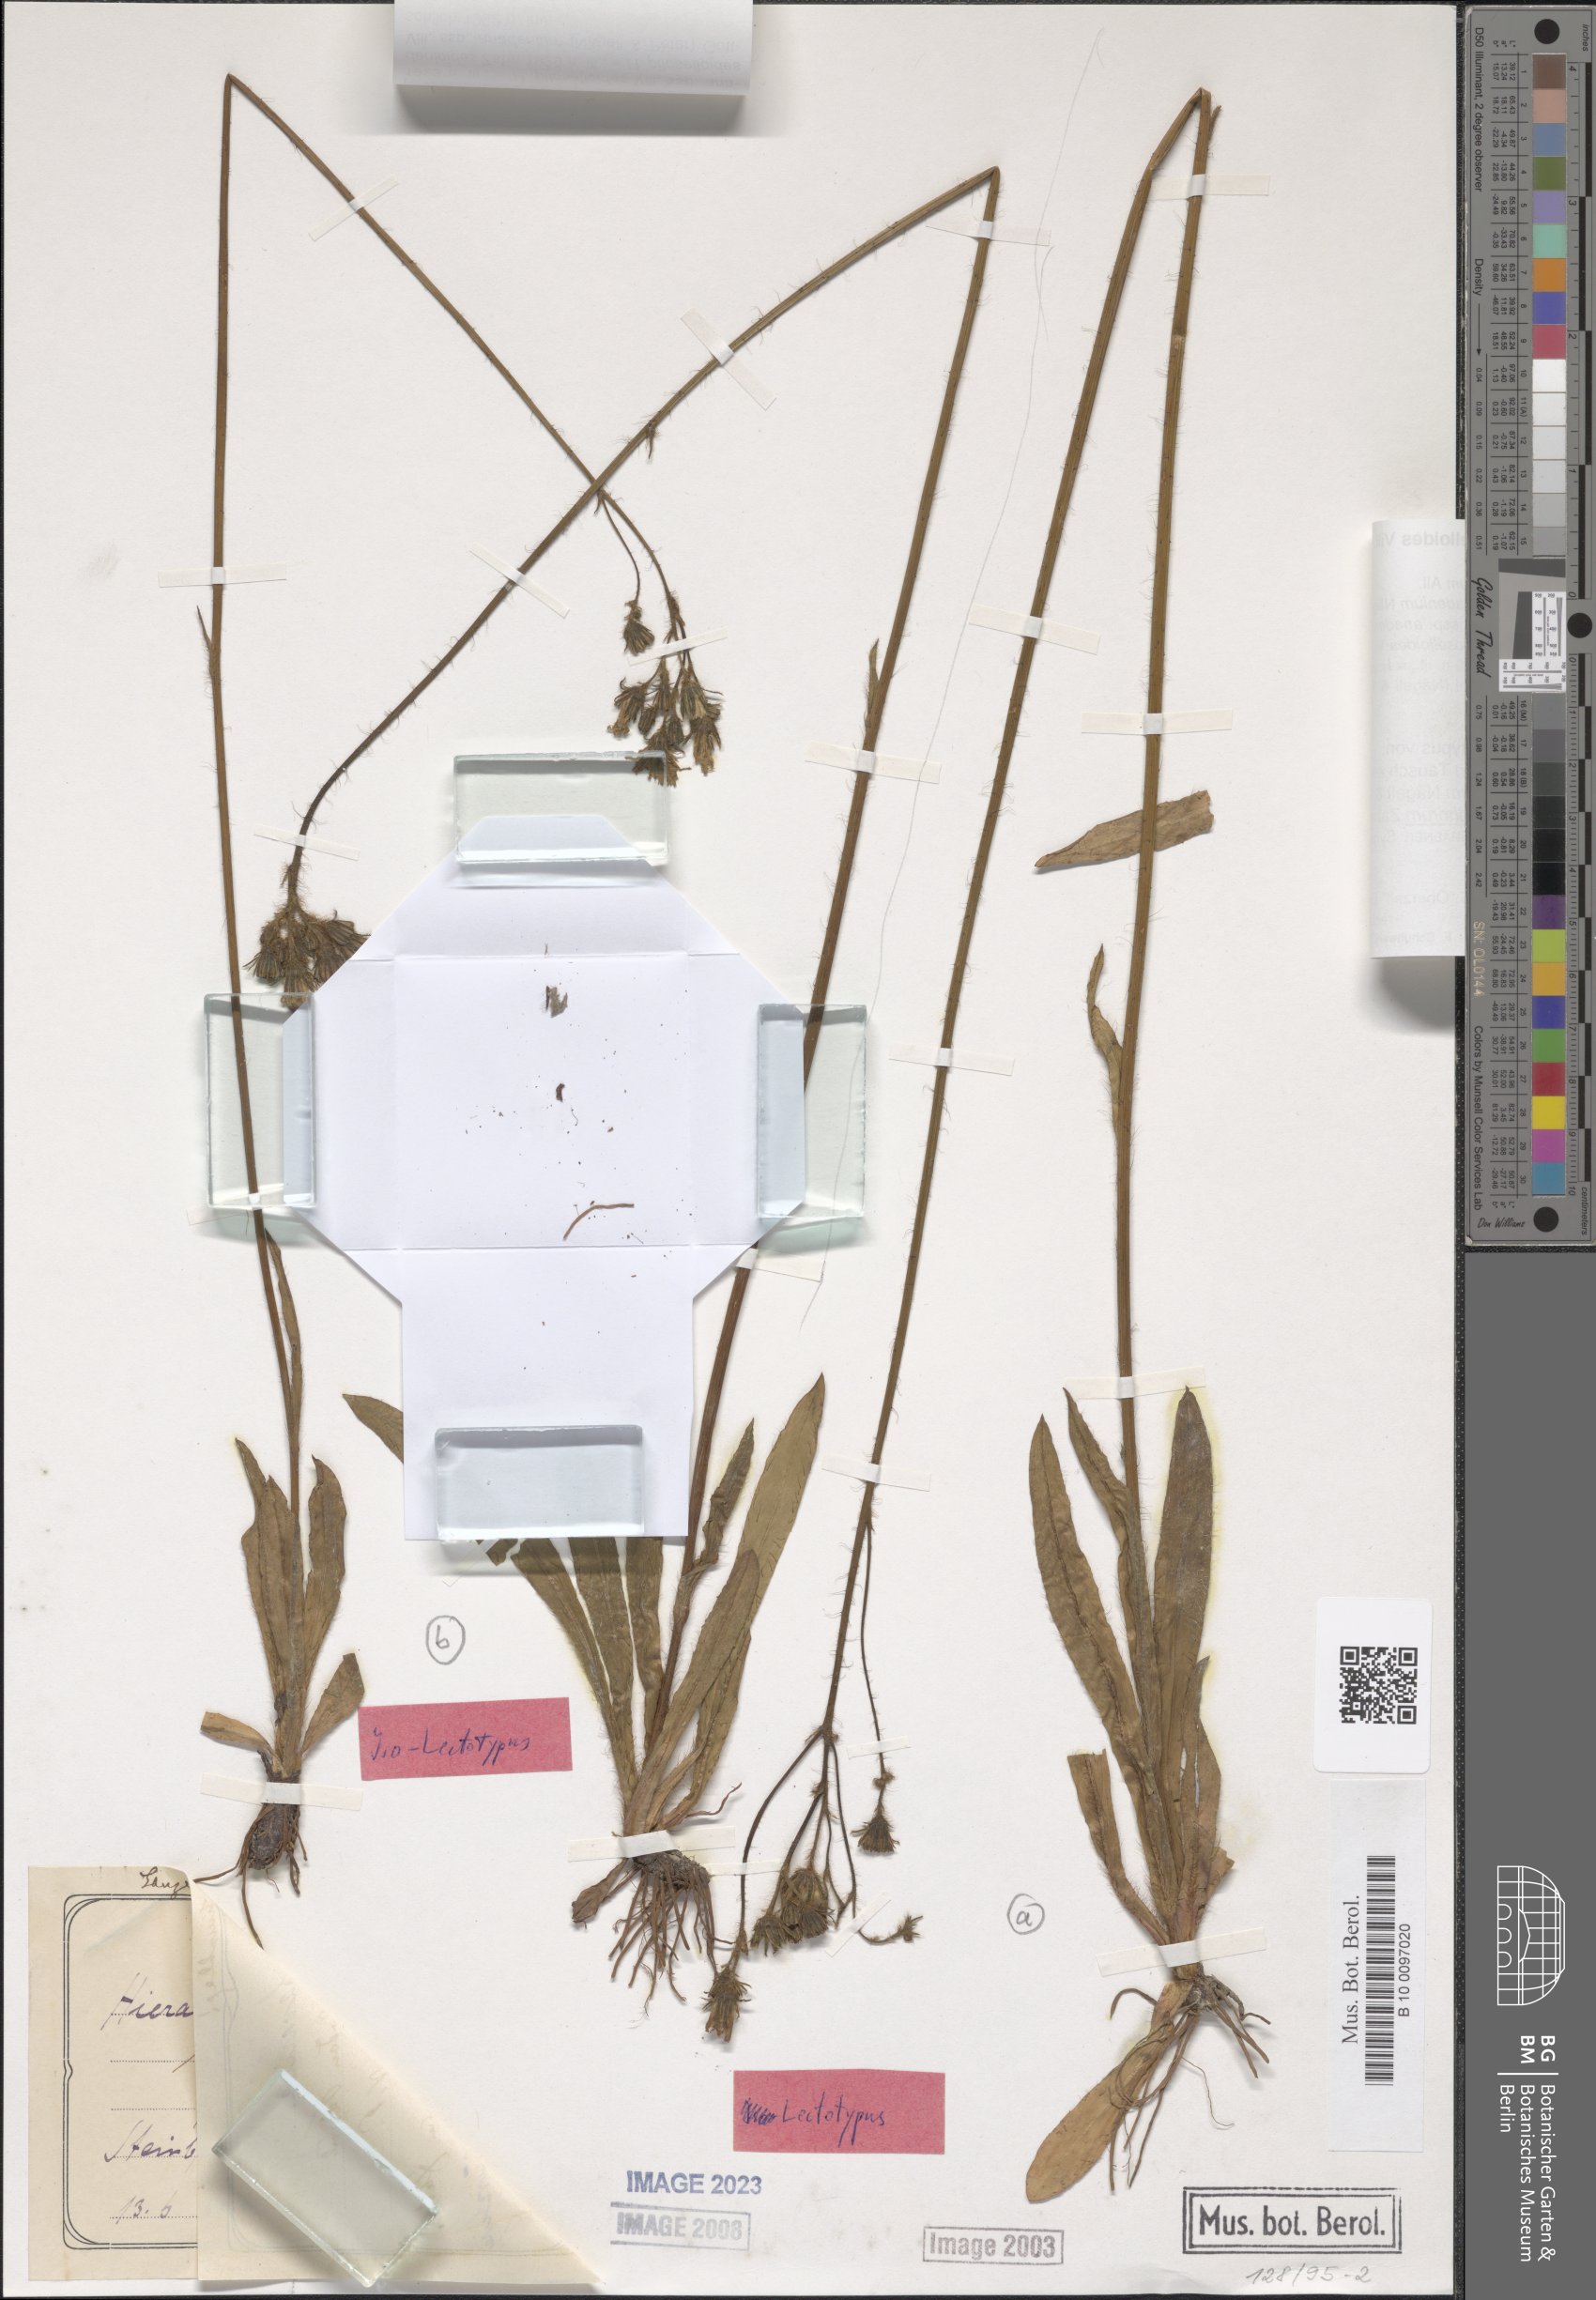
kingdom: Plantae
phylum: Tracheophyta
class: Magnoliopsida
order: Asterales
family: Asteraceae
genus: Pilosella
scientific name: Pilosella
